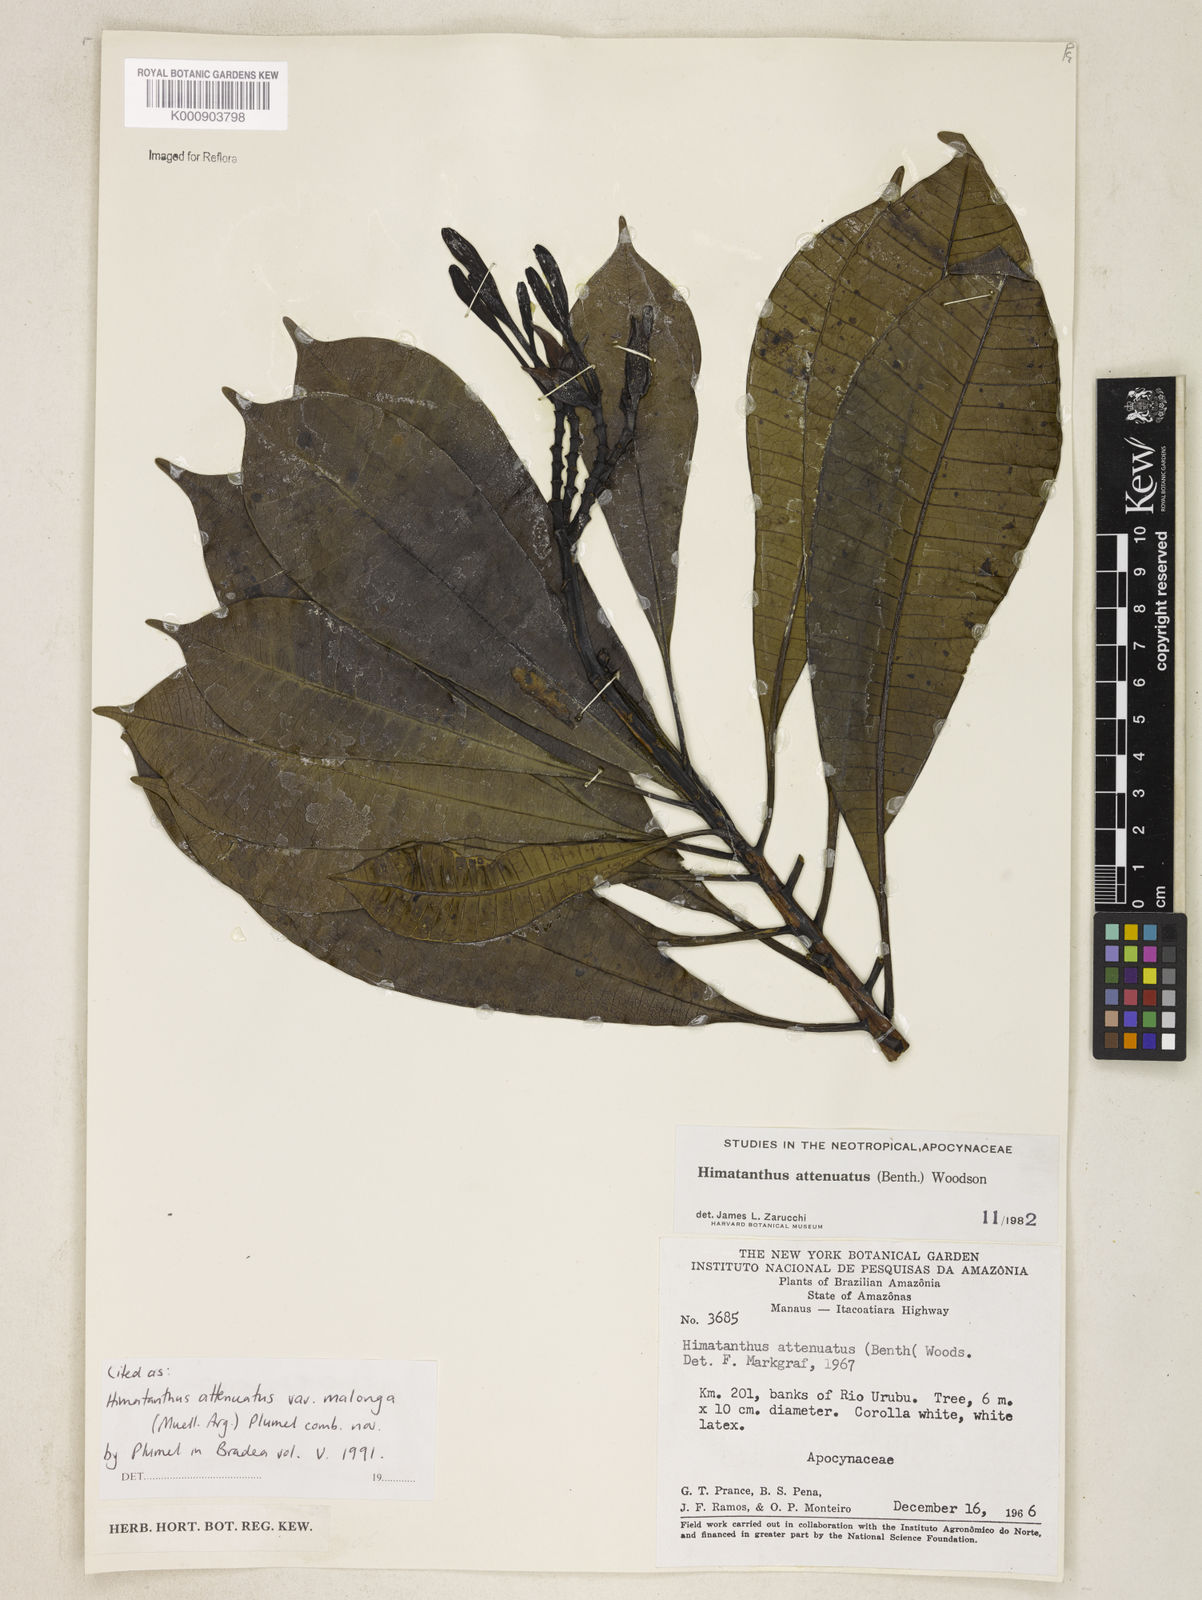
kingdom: Plantae
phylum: Tracheophyta
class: Magnoliopsida
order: Gentianales
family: Apocynaceae
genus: Himatanthus
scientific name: Himatanthus
